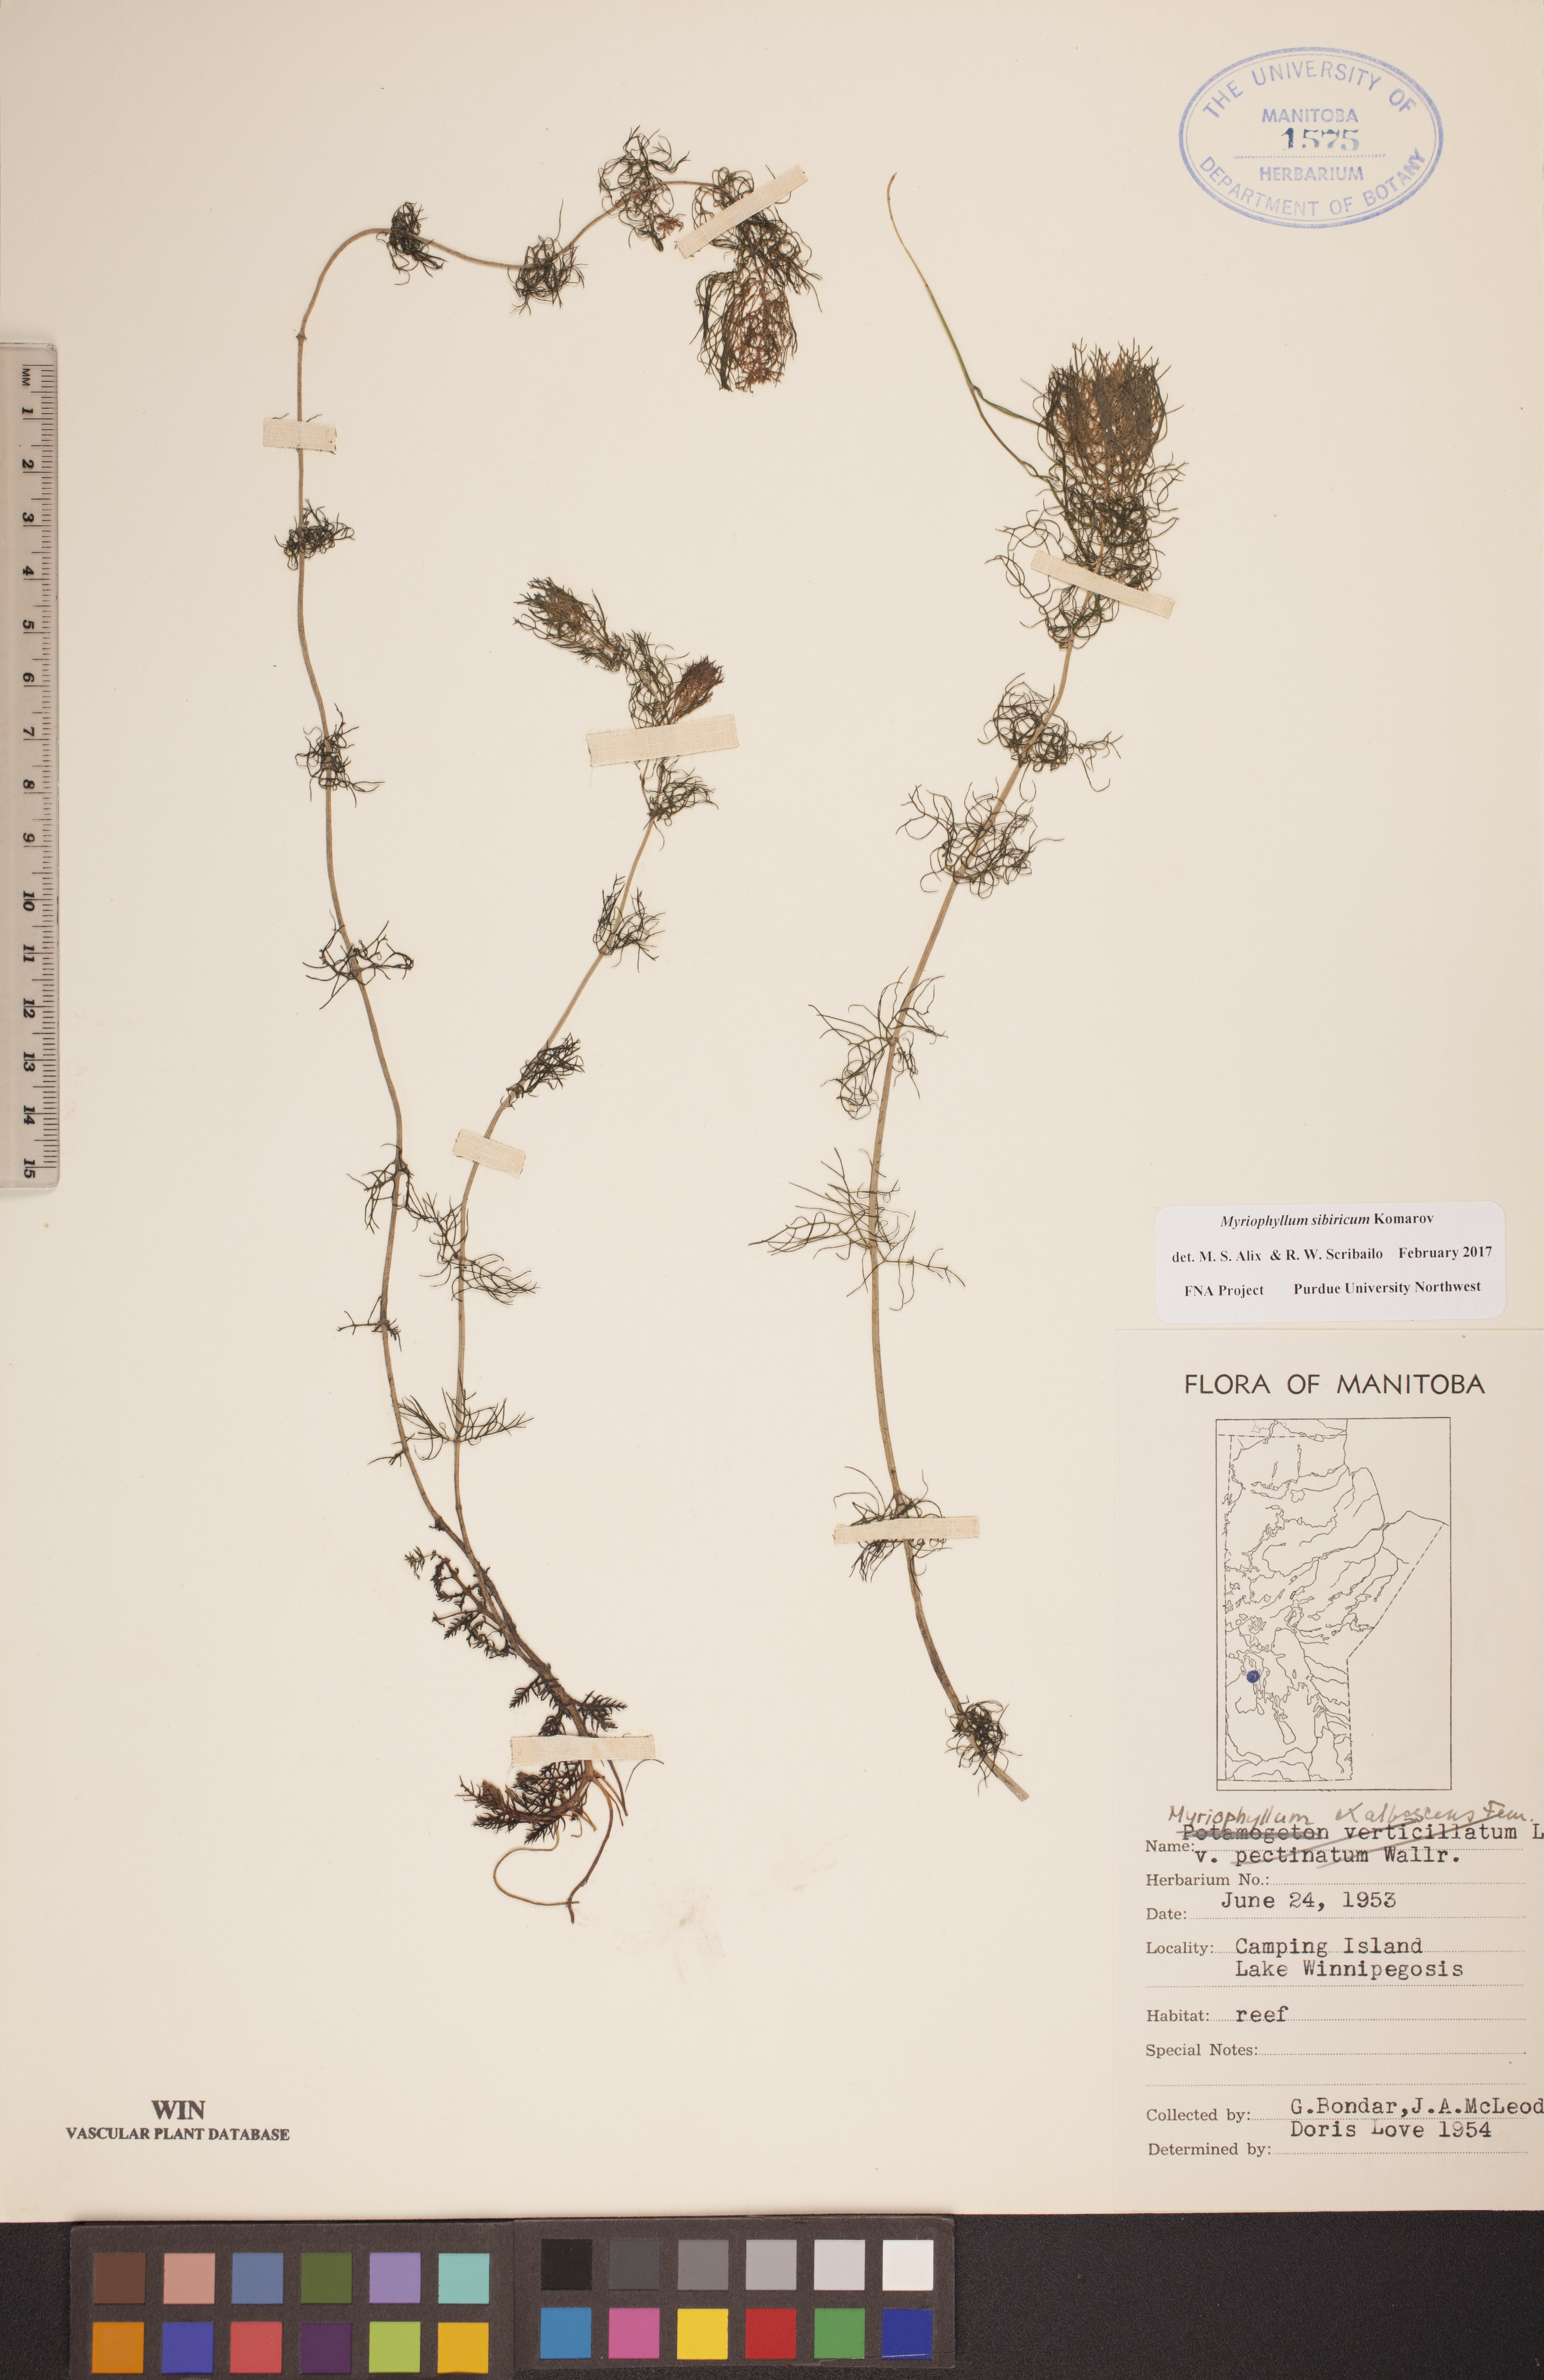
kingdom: Plantae
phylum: Tracheophyta
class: Magnoliopsida
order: Saxifragales
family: Haloragaceae
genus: Myriophyllum
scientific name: Myriophyllum sibiricum
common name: Siberian water-milfoil
